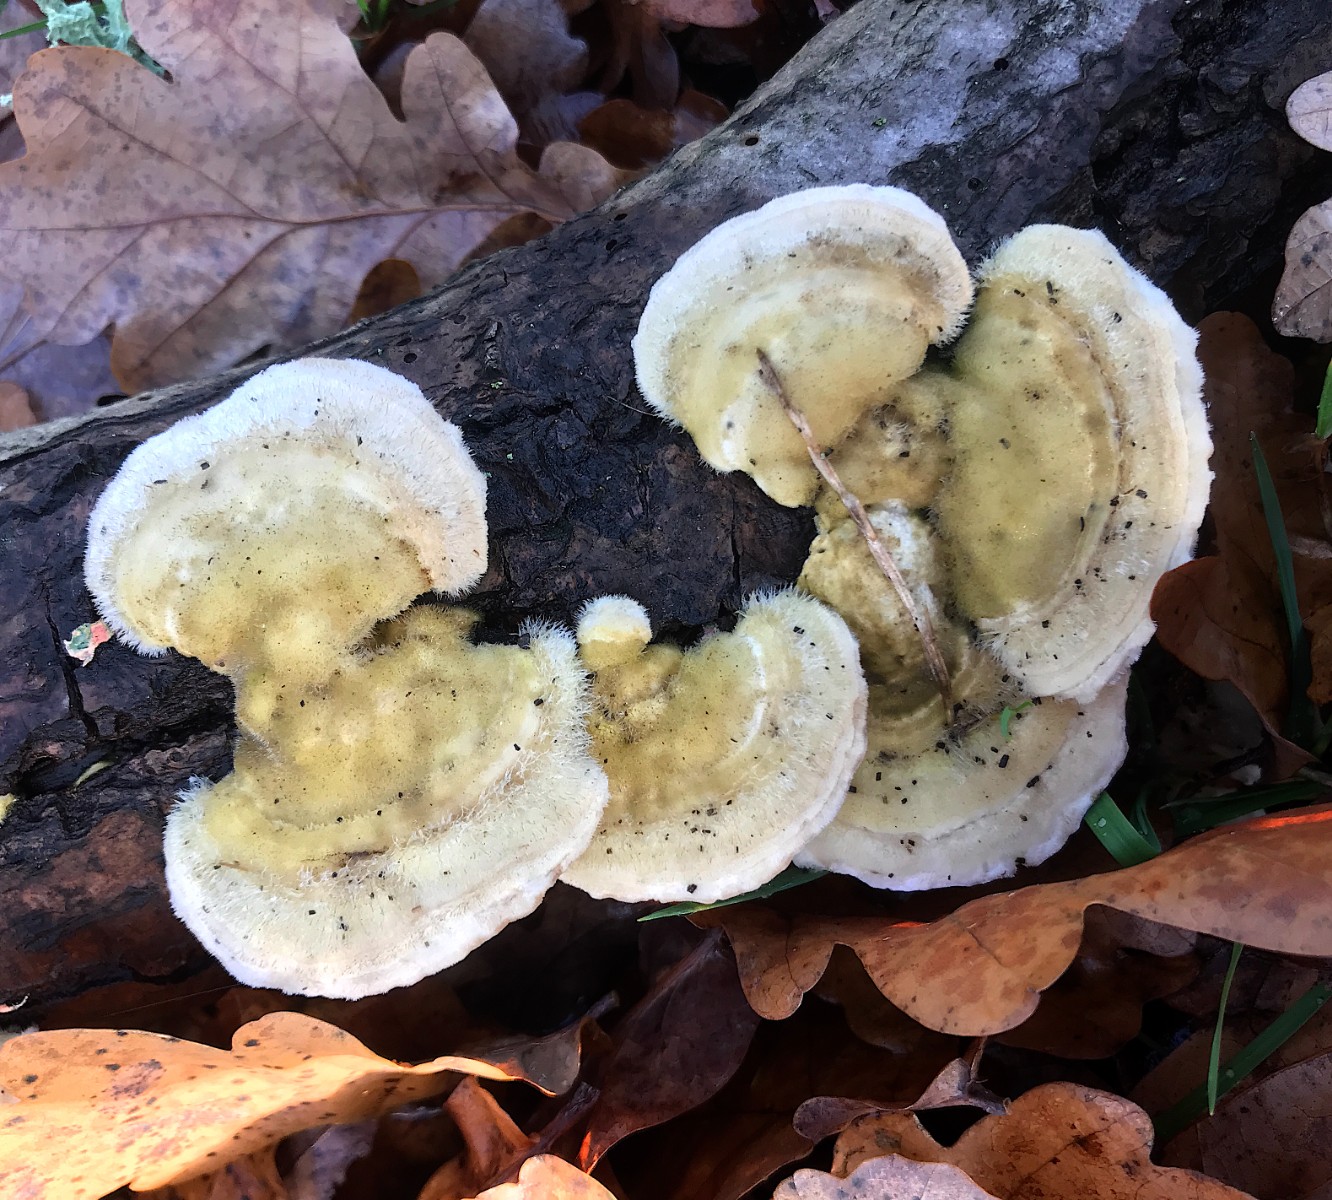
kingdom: Fungi
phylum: Basidiomycota
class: Agaricomycetes
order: Russulales
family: Stereaceae
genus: Stereum
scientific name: Stereum hirsutum
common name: håret lædersvamp
